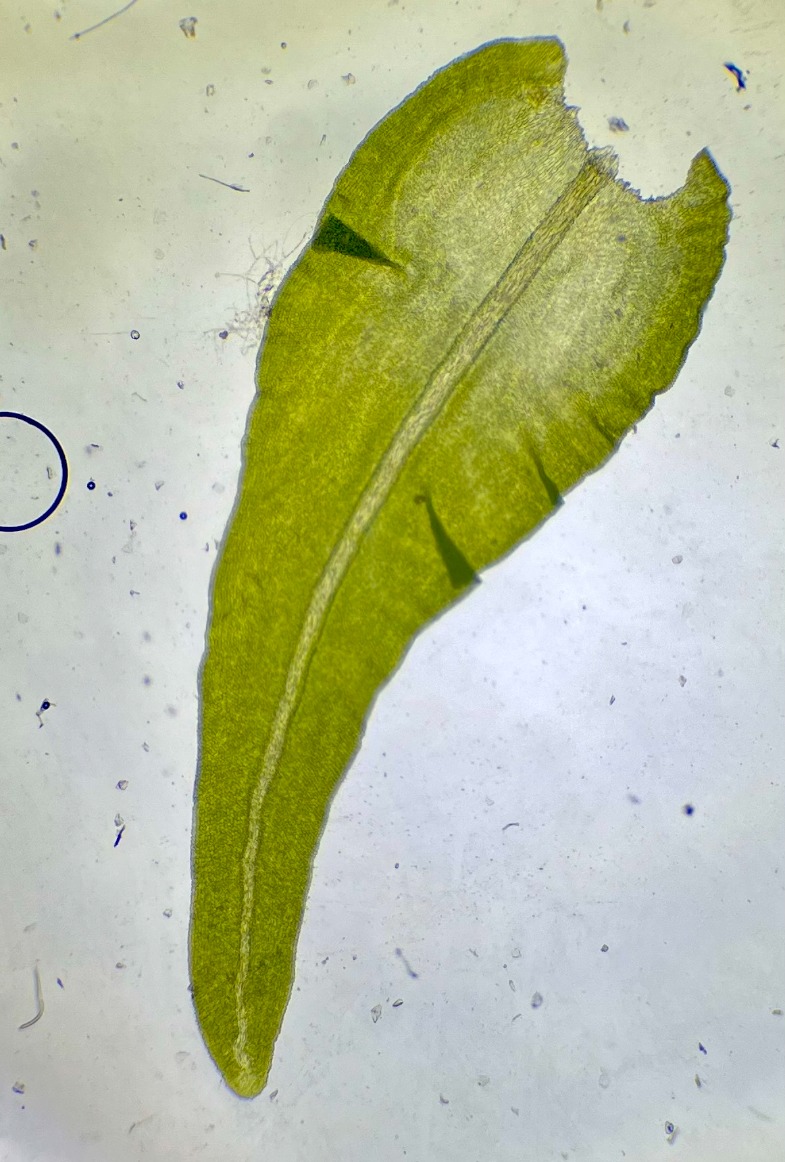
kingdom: Plantae
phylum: Bryophyta
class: Bryopsida
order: Hypnales
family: Anomodontaceae
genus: Anomodon
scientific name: Anomodon viticulosus
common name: Robust matblad
